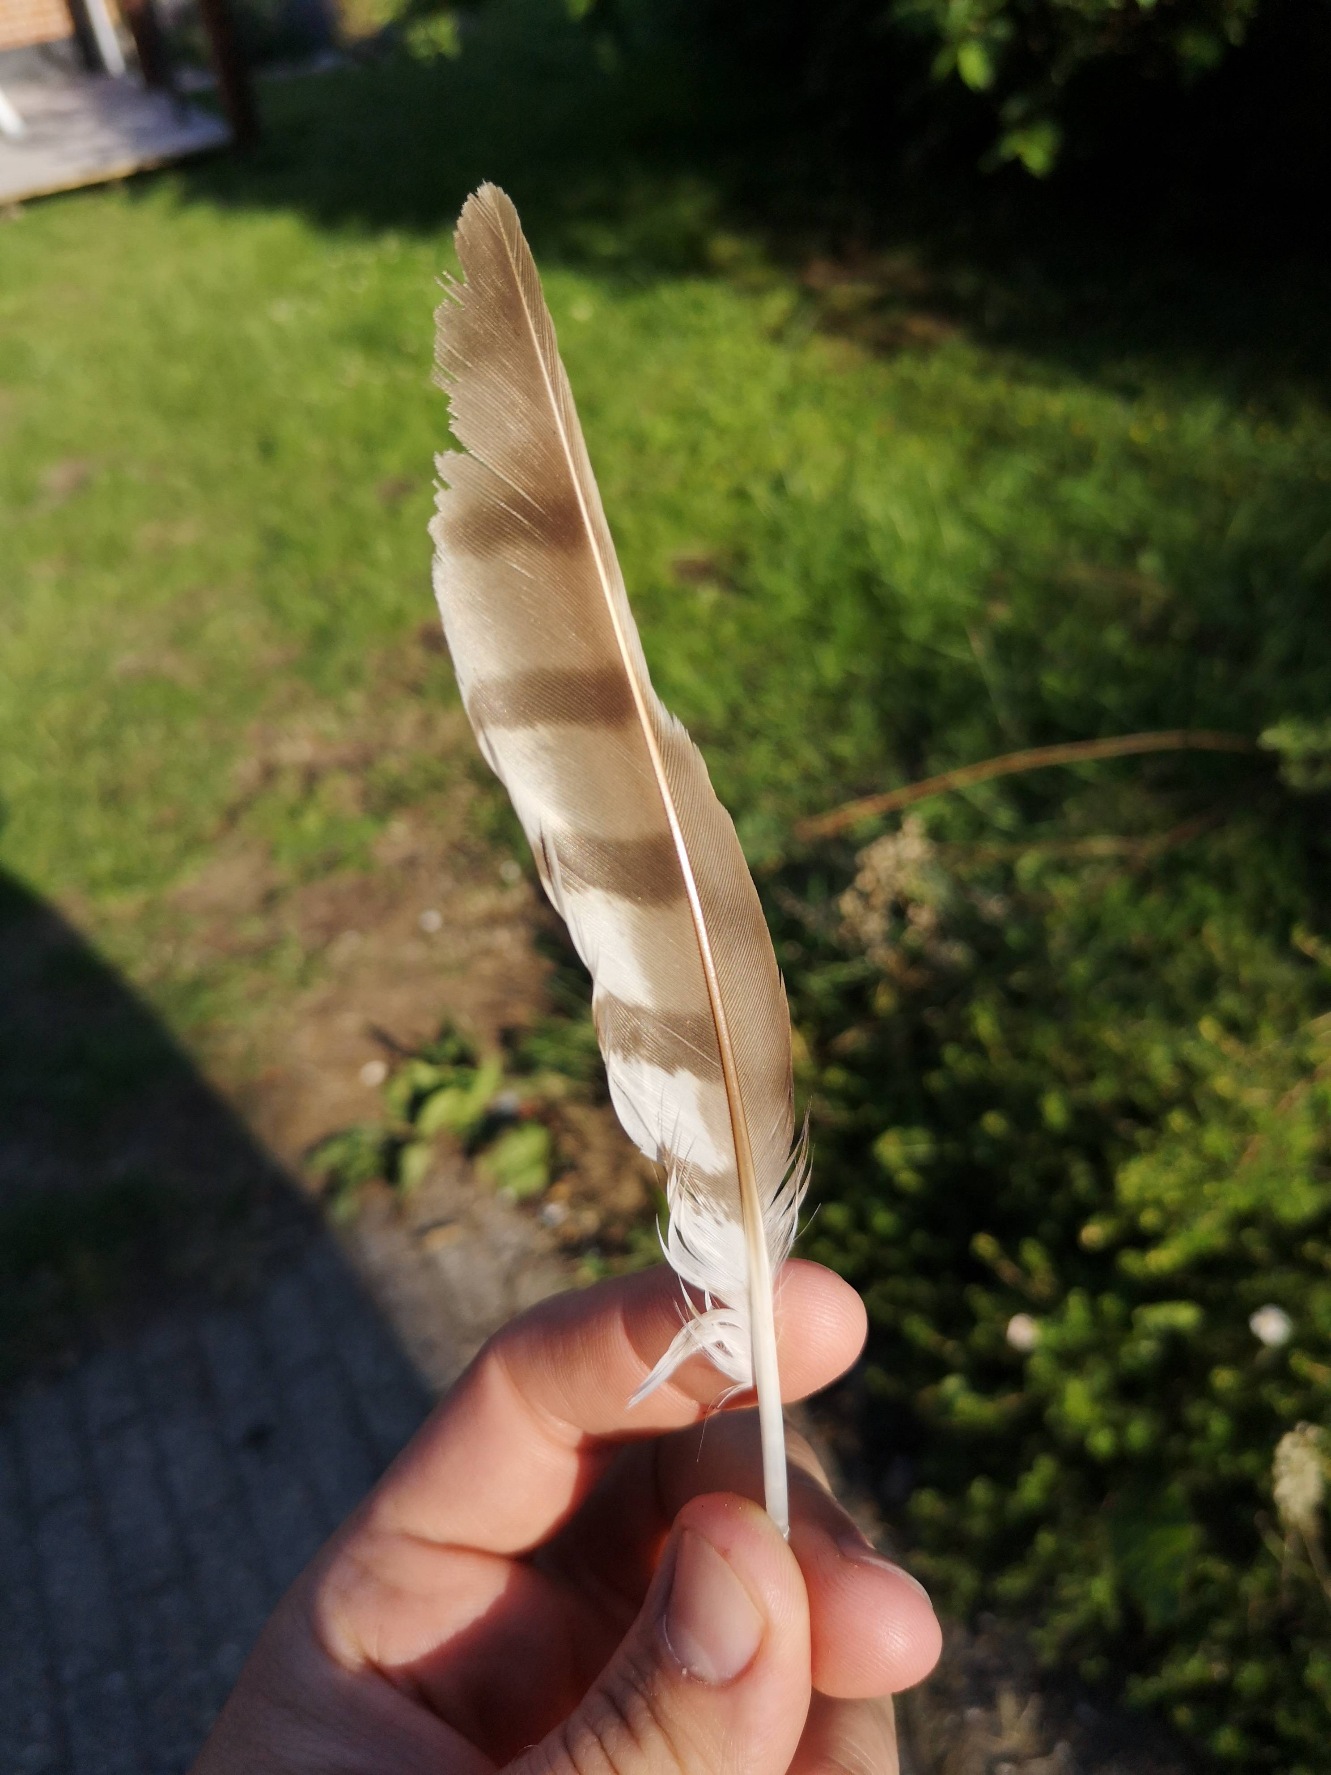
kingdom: Animalia
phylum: Chordata
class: Aves
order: Accipitriformes
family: Accipitridae
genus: Accipiter
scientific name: Accipiter nisus
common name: Spurvehøg
